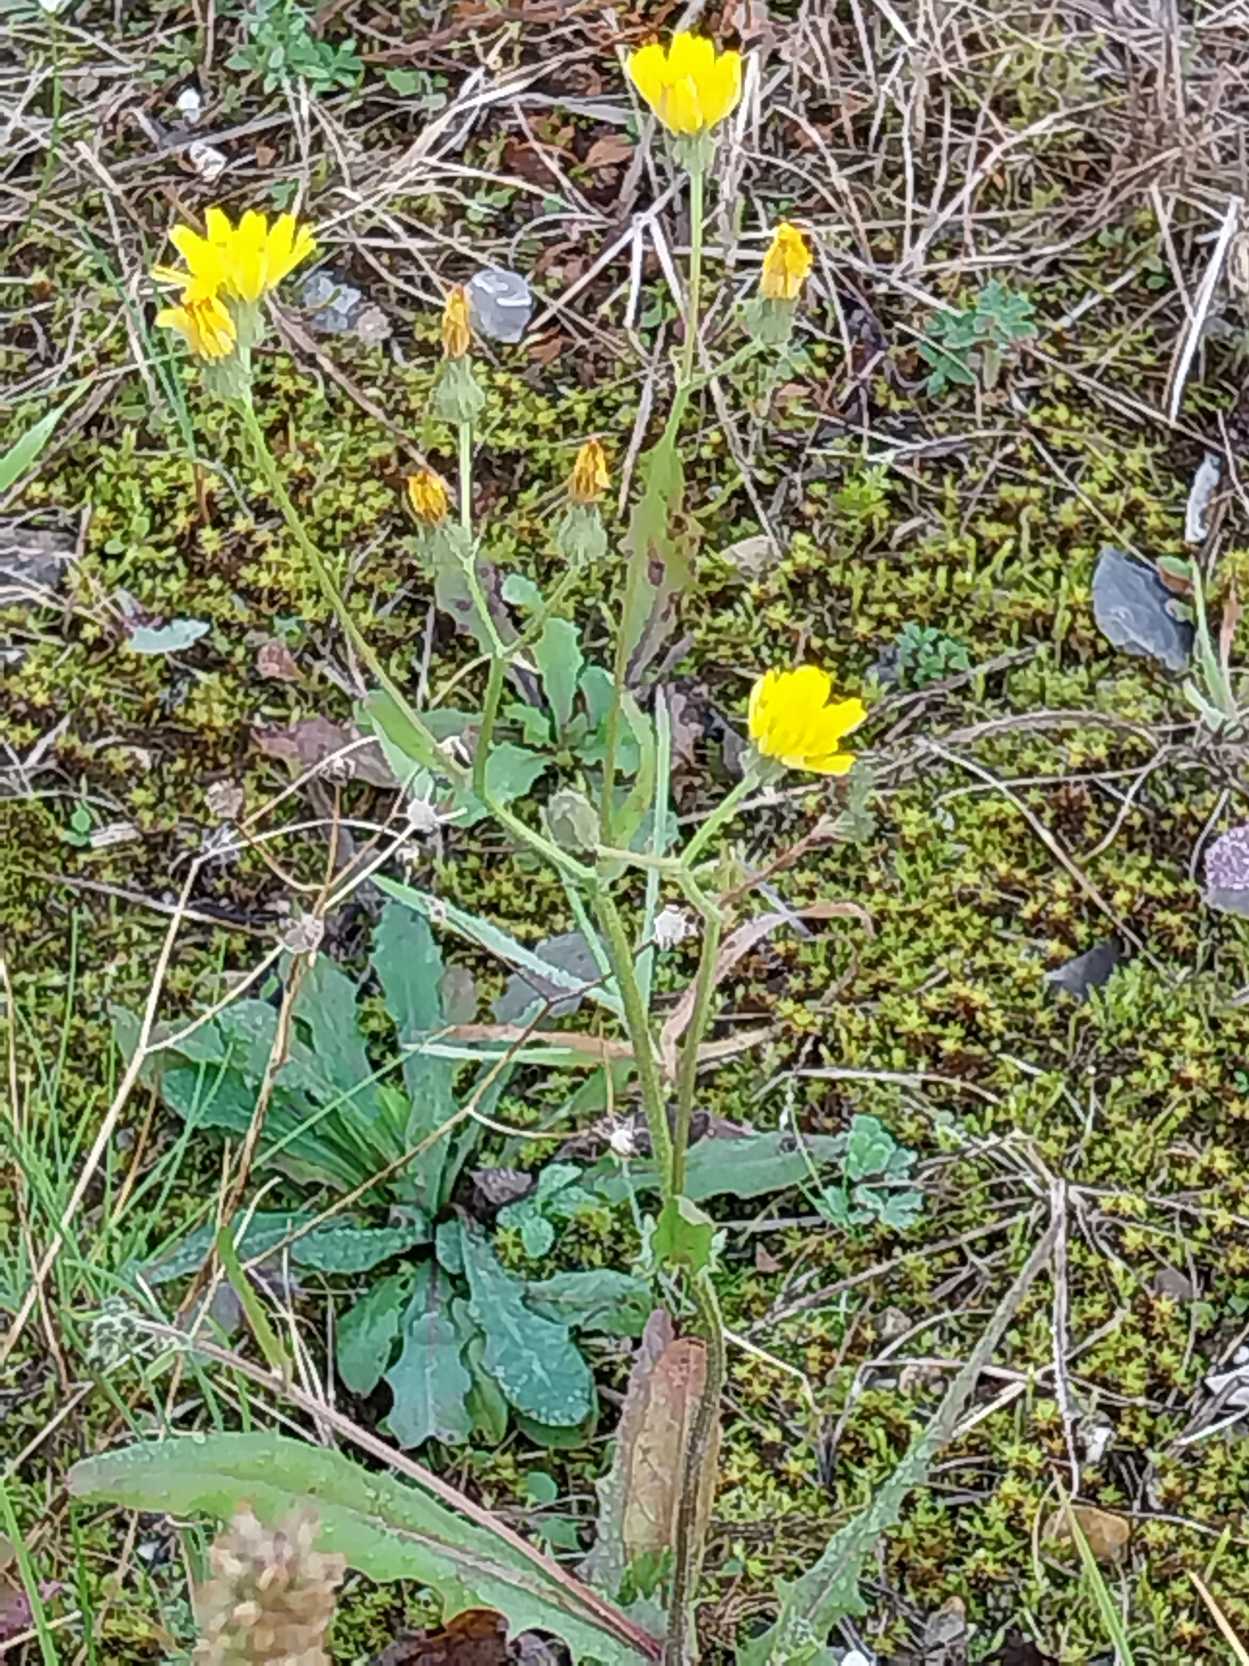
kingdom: Plantae
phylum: Tracheophyta
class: Magnoliopsida
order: Asterales
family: Asteraceae
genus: Crepis
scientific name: Crepis capillaris
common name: Grøn høgeskæg
